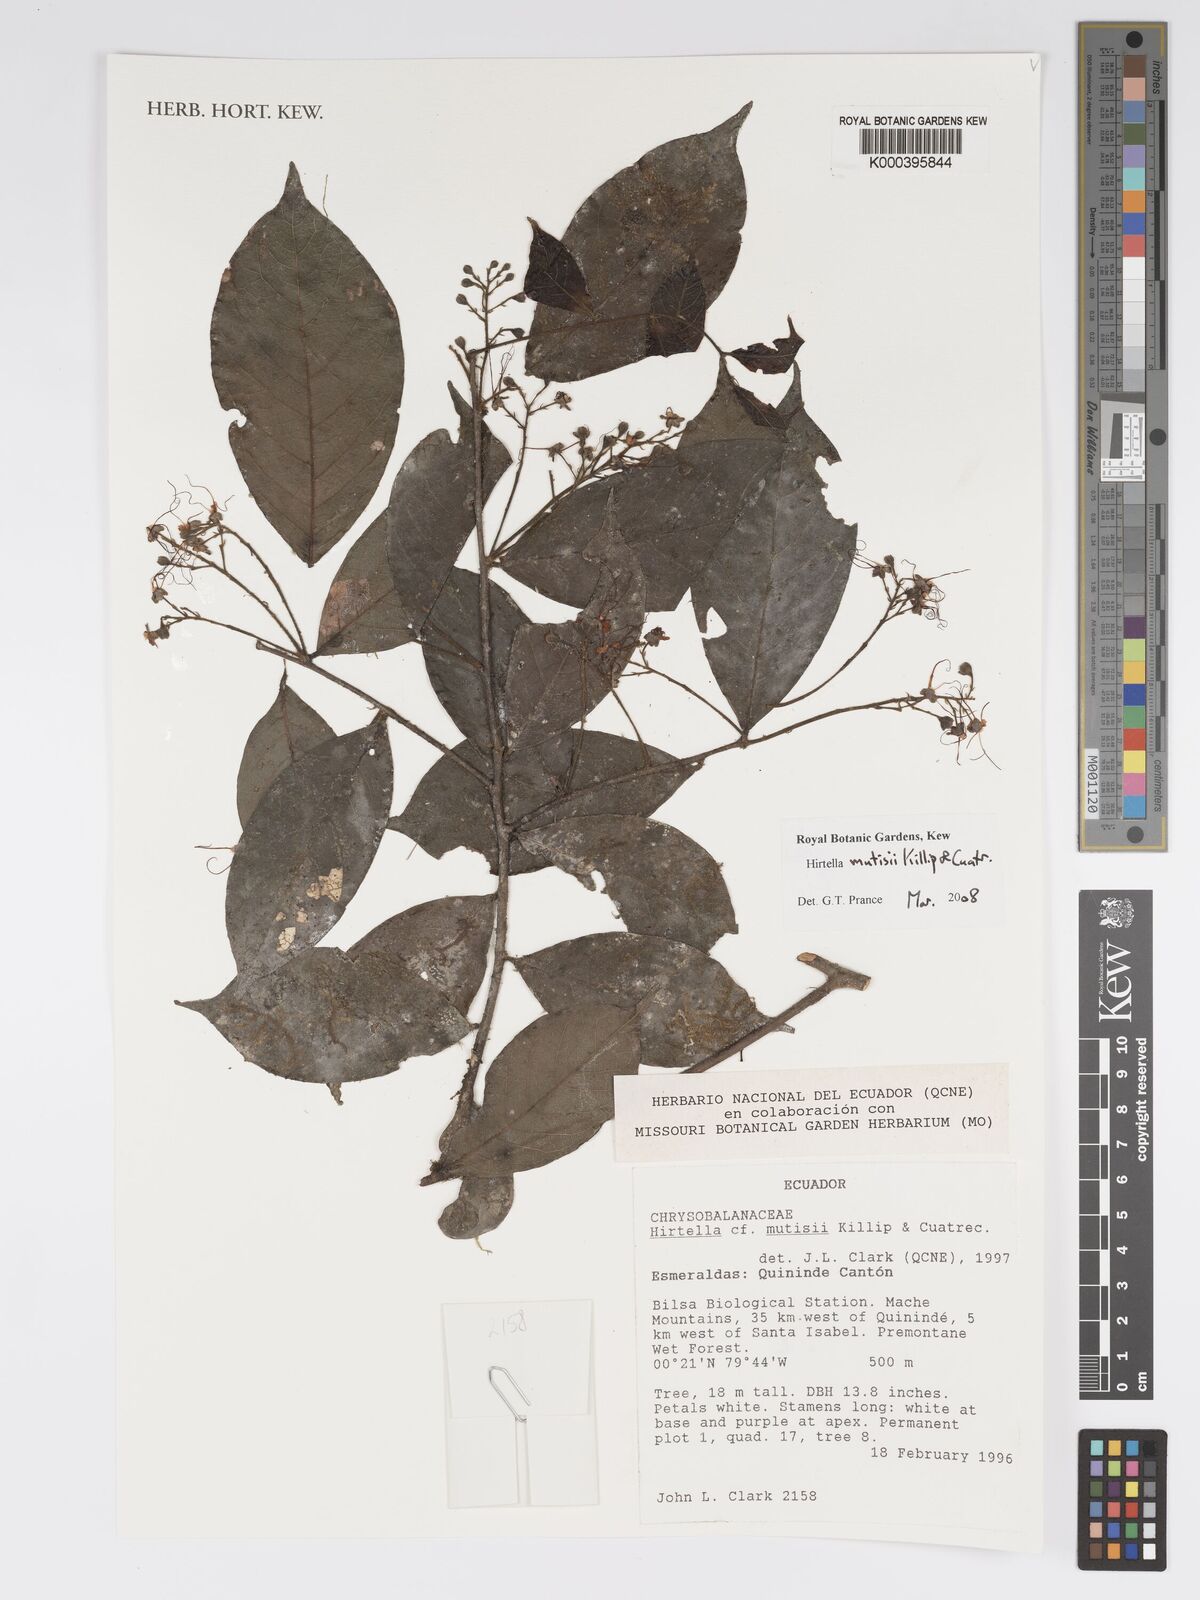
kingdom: Plantae
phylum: Tracheophyta
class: Magnoliopsida
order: Malpighiales
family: Chrysobalanaceae
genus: Hirtella
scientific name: Hirtella mutisii
